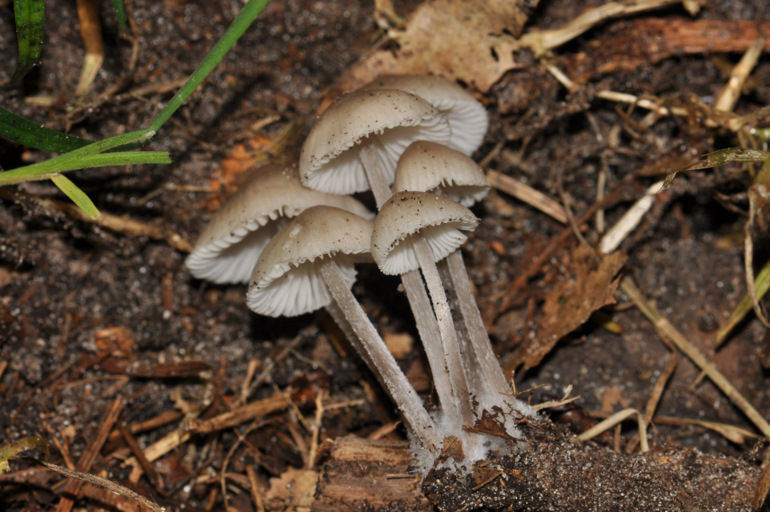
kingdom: Fungi
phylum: Basidiomycota
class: Agaricomycetes
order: Agaricales
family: Mycenaceae
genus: Mycena
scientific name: Mycena zephirus
